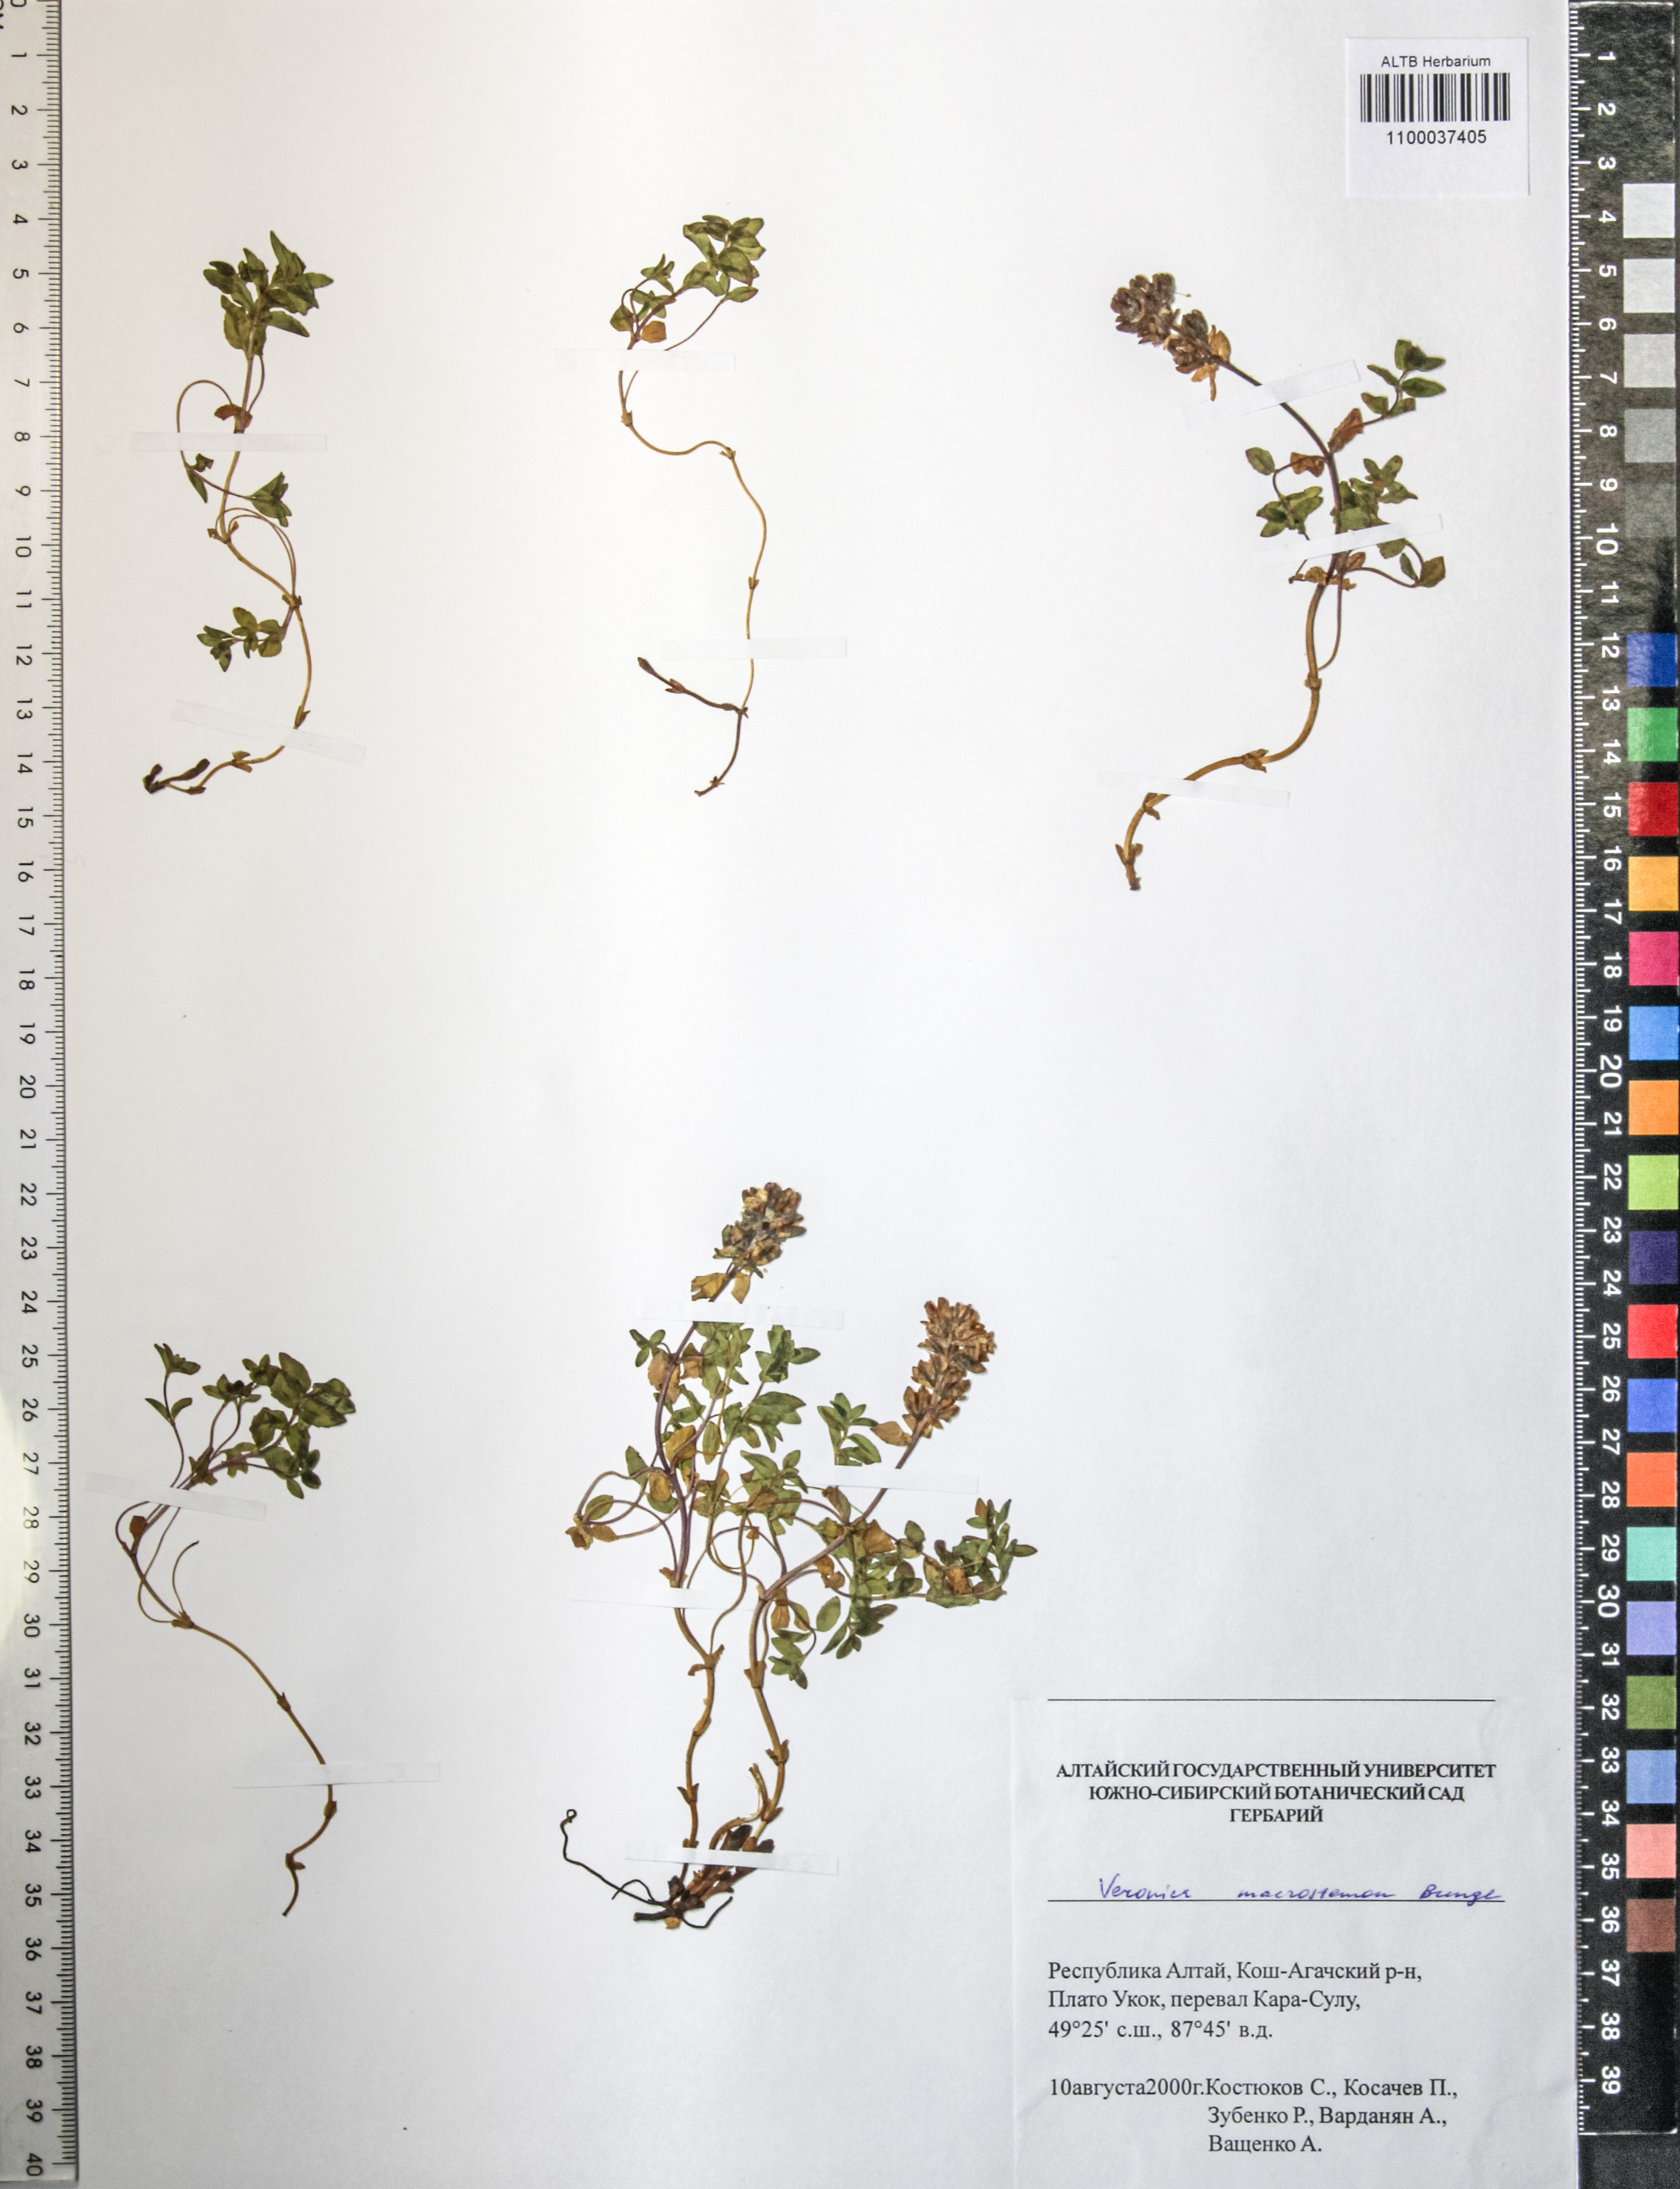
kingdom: Plantae
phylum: Tracheophyta
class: Magnoliopsida
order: Lamiales
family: Plantaginaceae
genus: Veronica
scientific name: Veronica macrostemon
